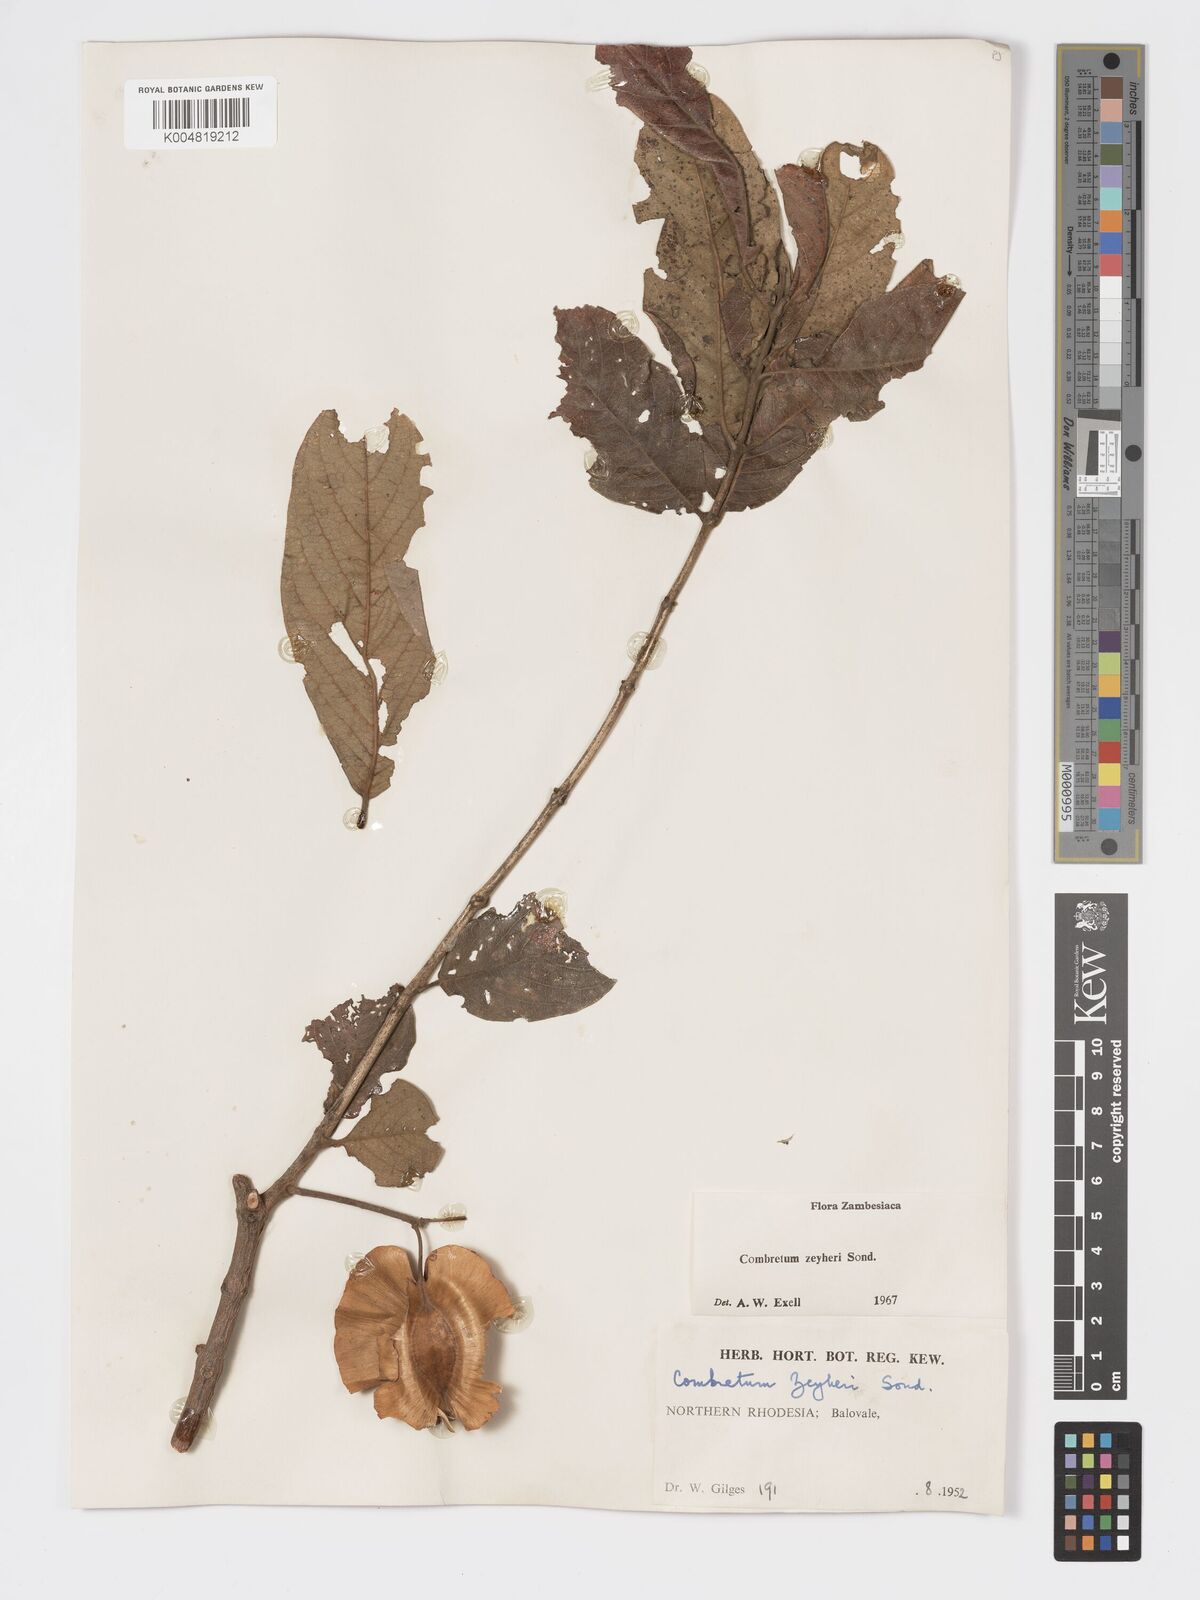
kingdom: Plantae
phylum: Tracheophyta
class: Magnoliopsida
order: Myrtales
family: Combretaceae
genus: Combretum
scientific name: Combretum zeyheri
